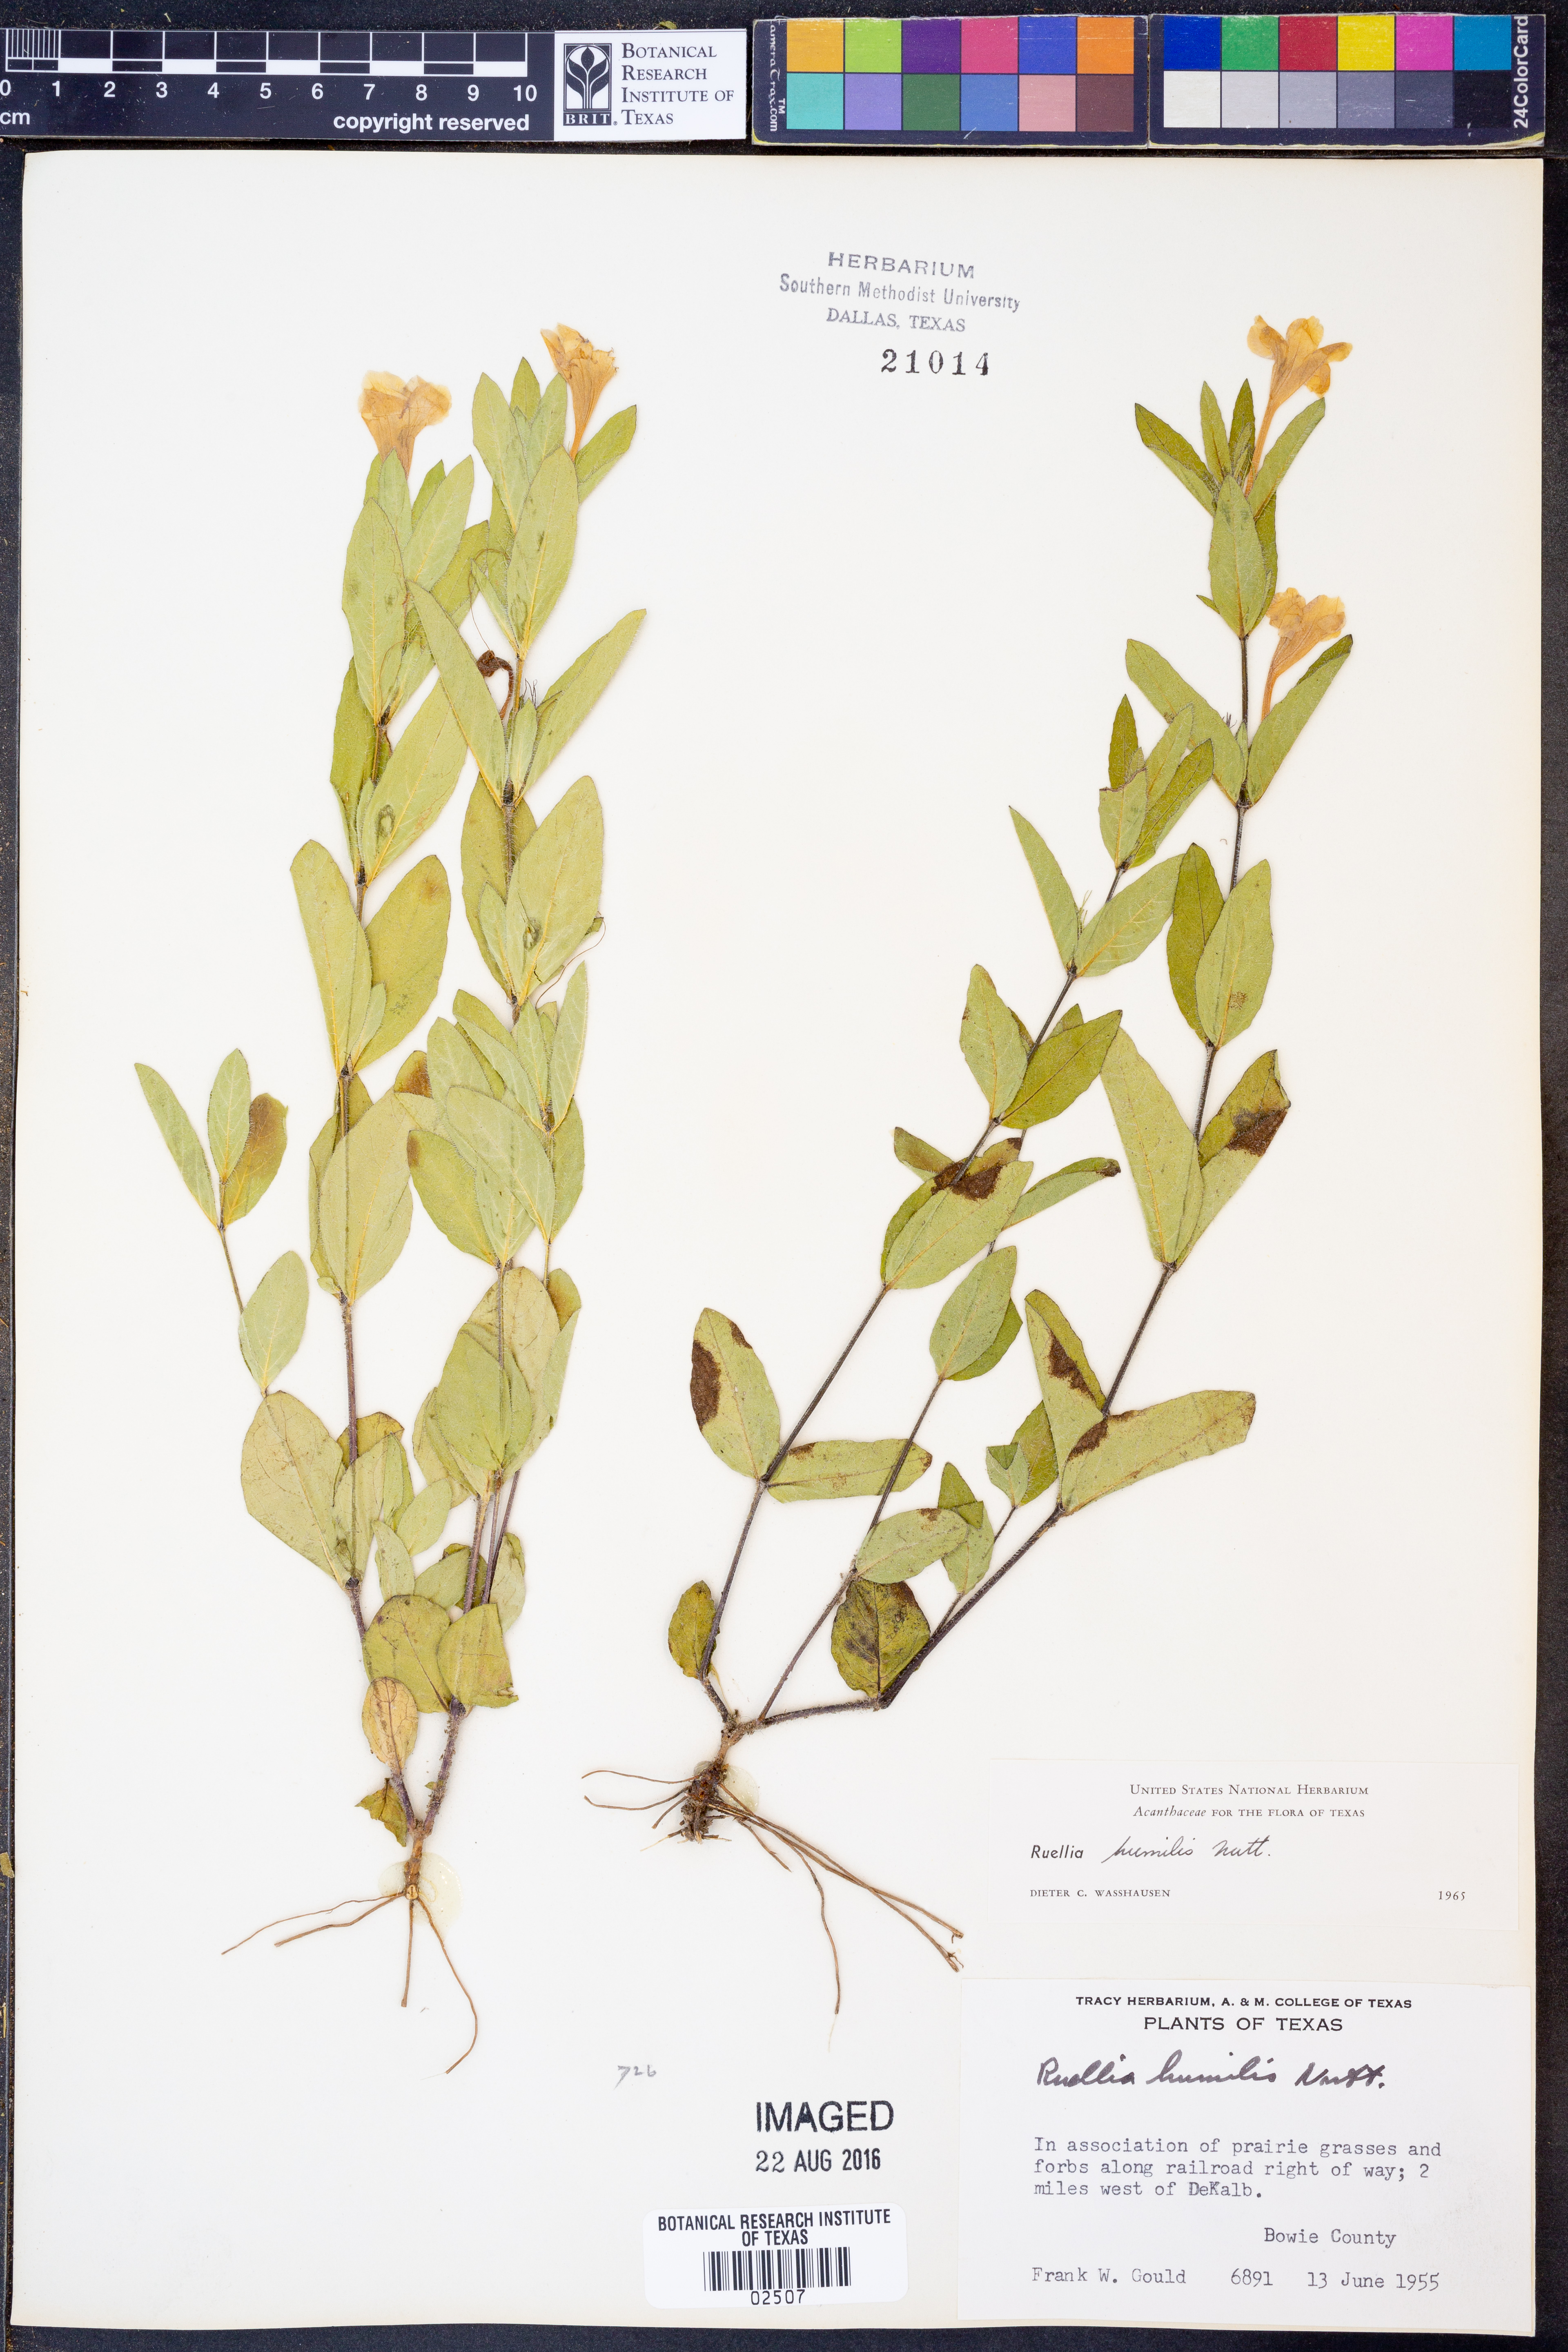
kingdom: Plantae
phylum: Tracheophyta
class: Magnoliopsida
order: Lamiales
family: Acanthaceae
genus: Ruellia
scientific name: Ruellia humilis
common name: Fringe-leaf ruellia
